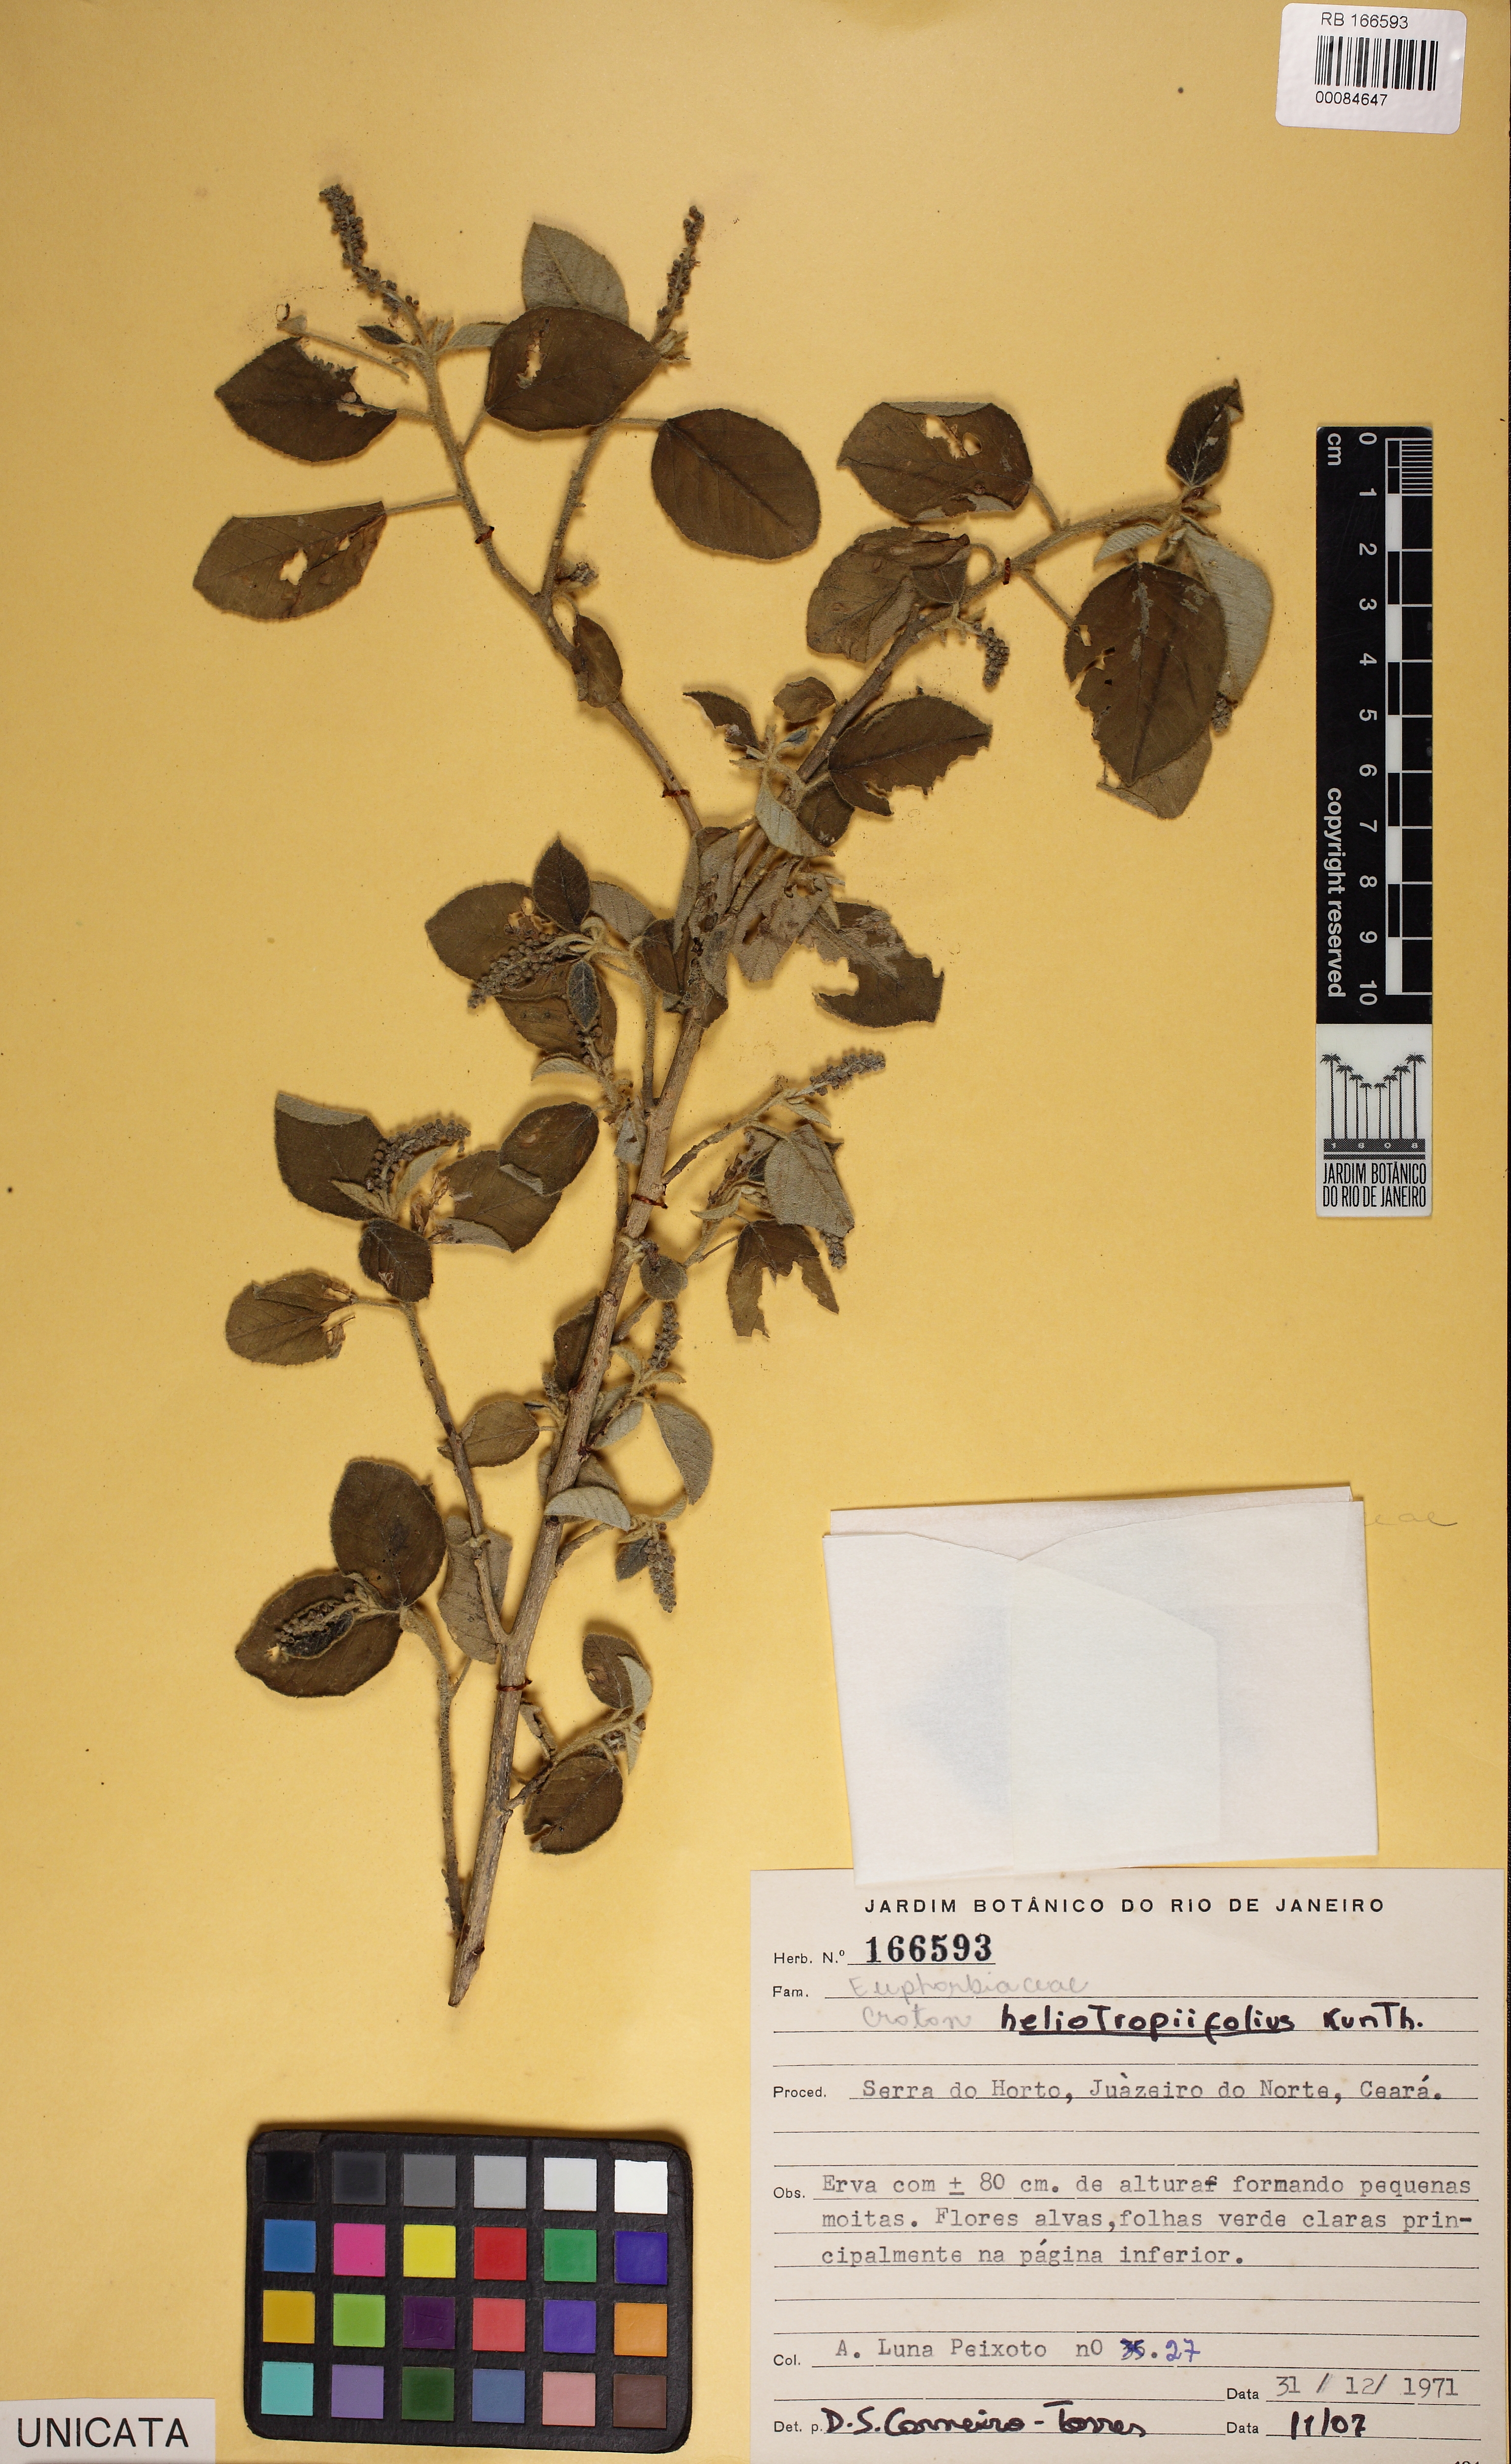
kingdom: Plantae
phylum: Tracheophyta
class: Magnoliopsida
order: Malpighiales
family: Euphorbiaceae
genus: Croton
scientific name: Croton heliotropiifolius
